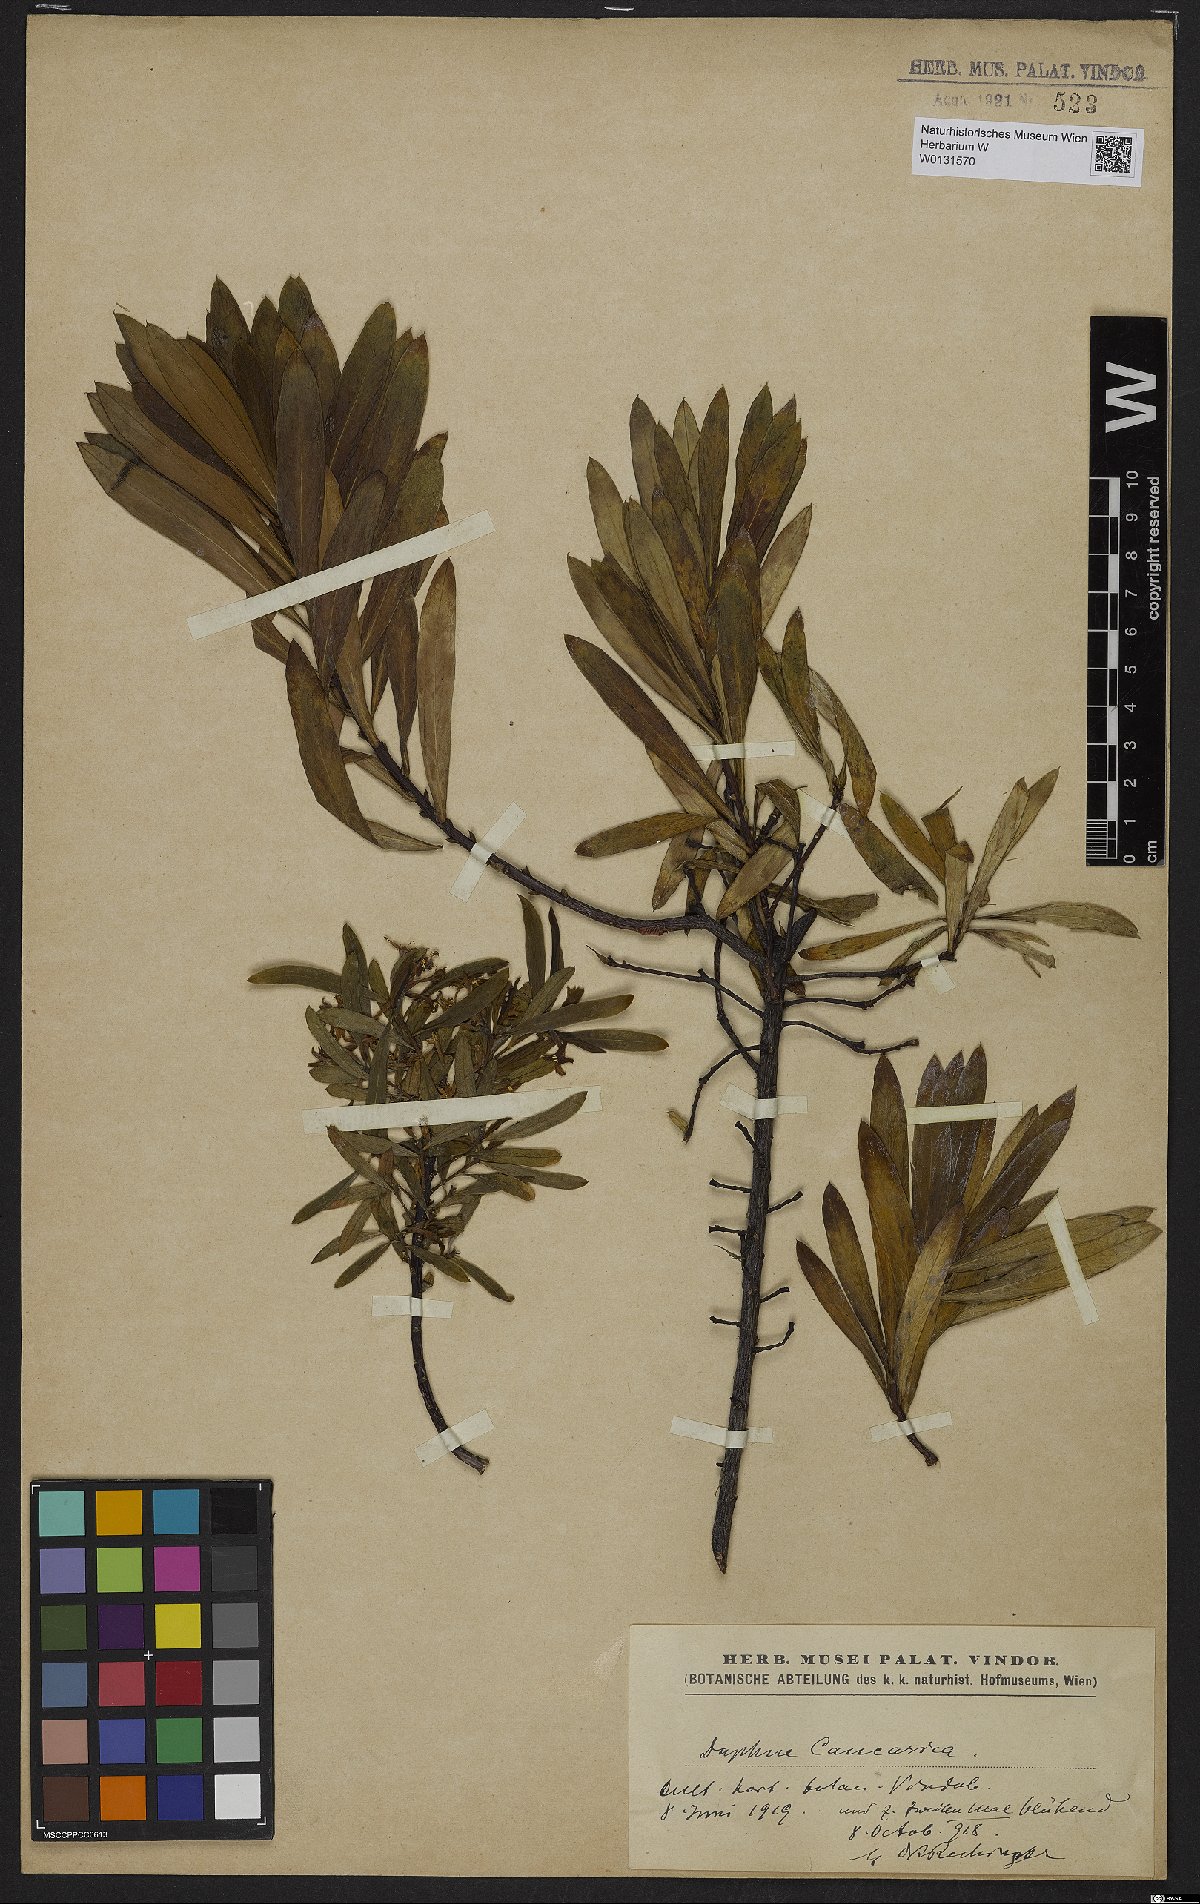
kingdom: Plantae
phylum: Tracheophyta
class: Magnoliopsida
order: Malvales
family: Thymelaeaceae
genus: Daphne
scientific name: Daphne caucasica
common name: Caucasian daphne
